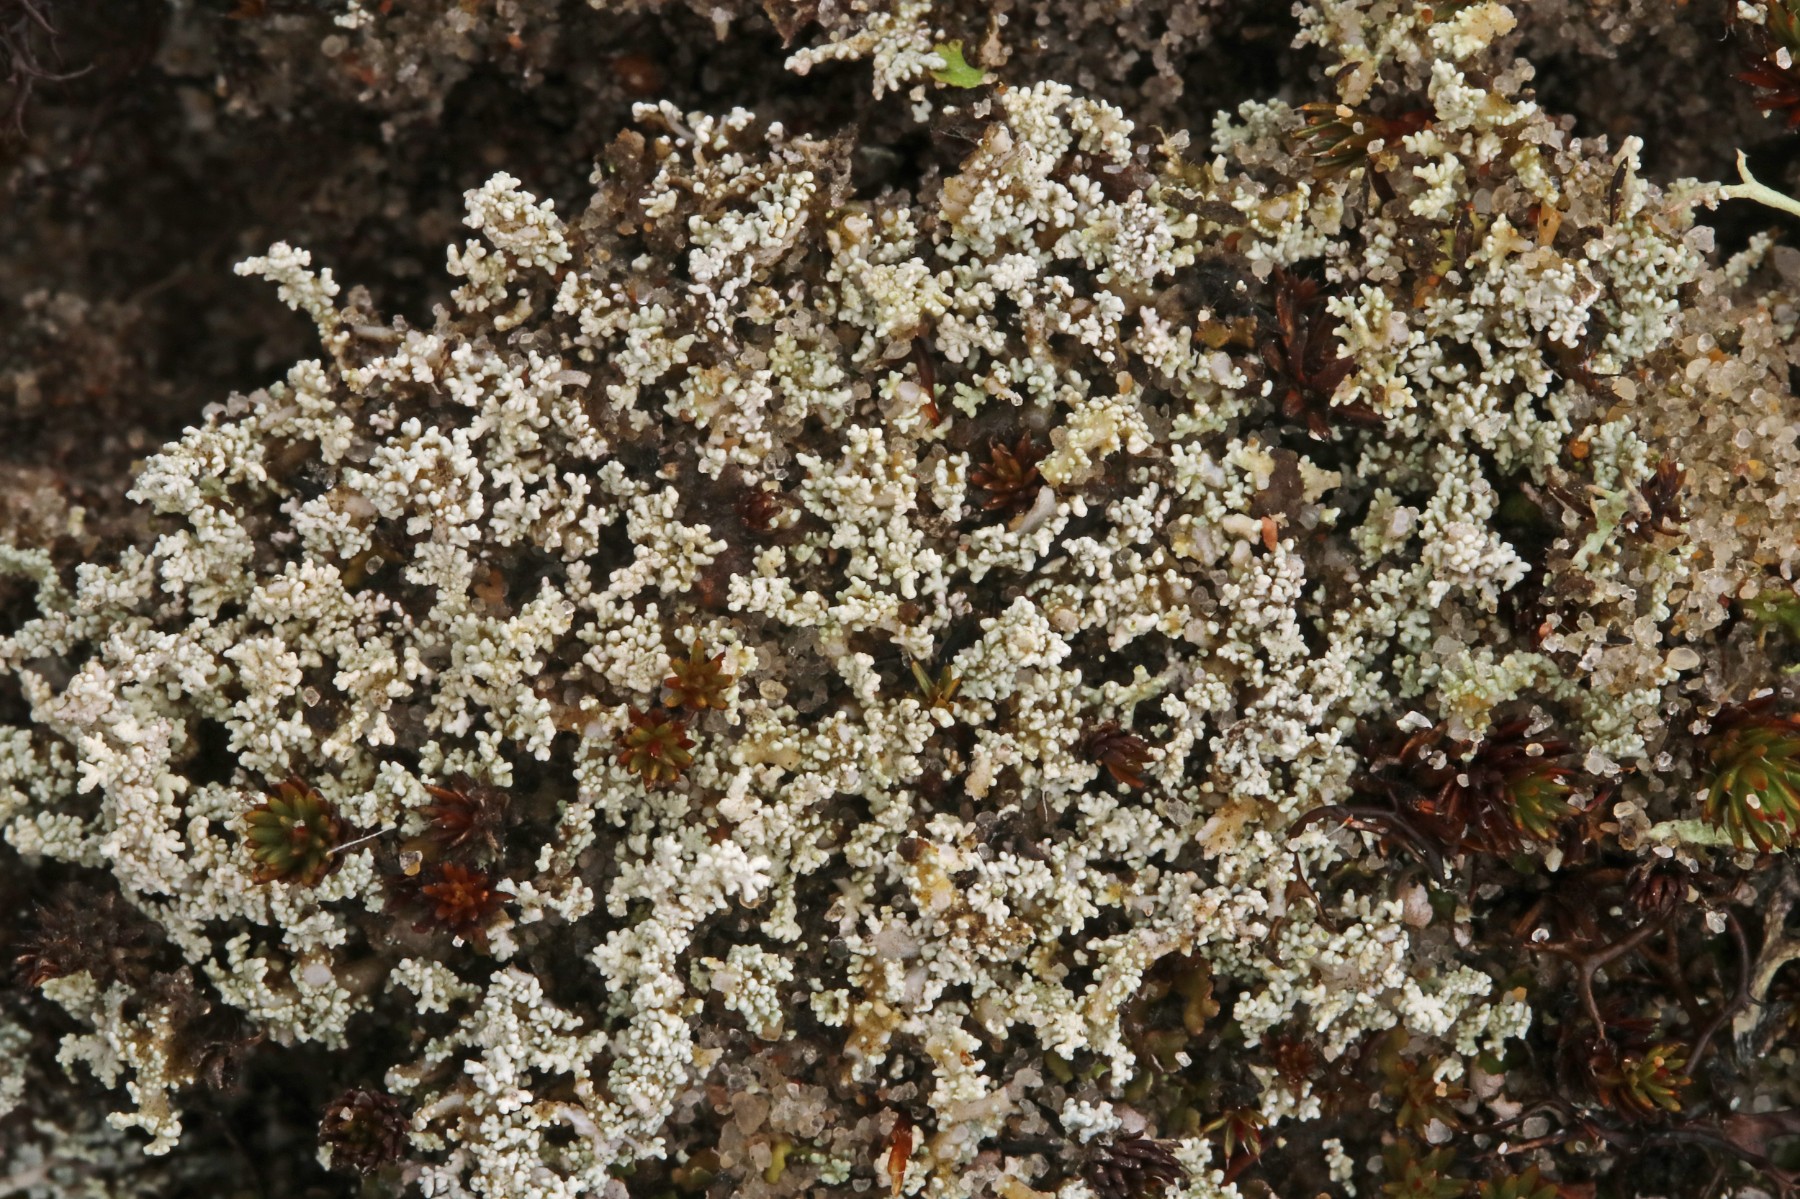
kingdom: Fungi
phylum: Ascomycota
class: Lecanoromycetes
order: Lecanorales
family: Stereocaulaceae
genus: Stereocaulon
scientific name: Stereocaulon condensatum
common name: lav korallav
